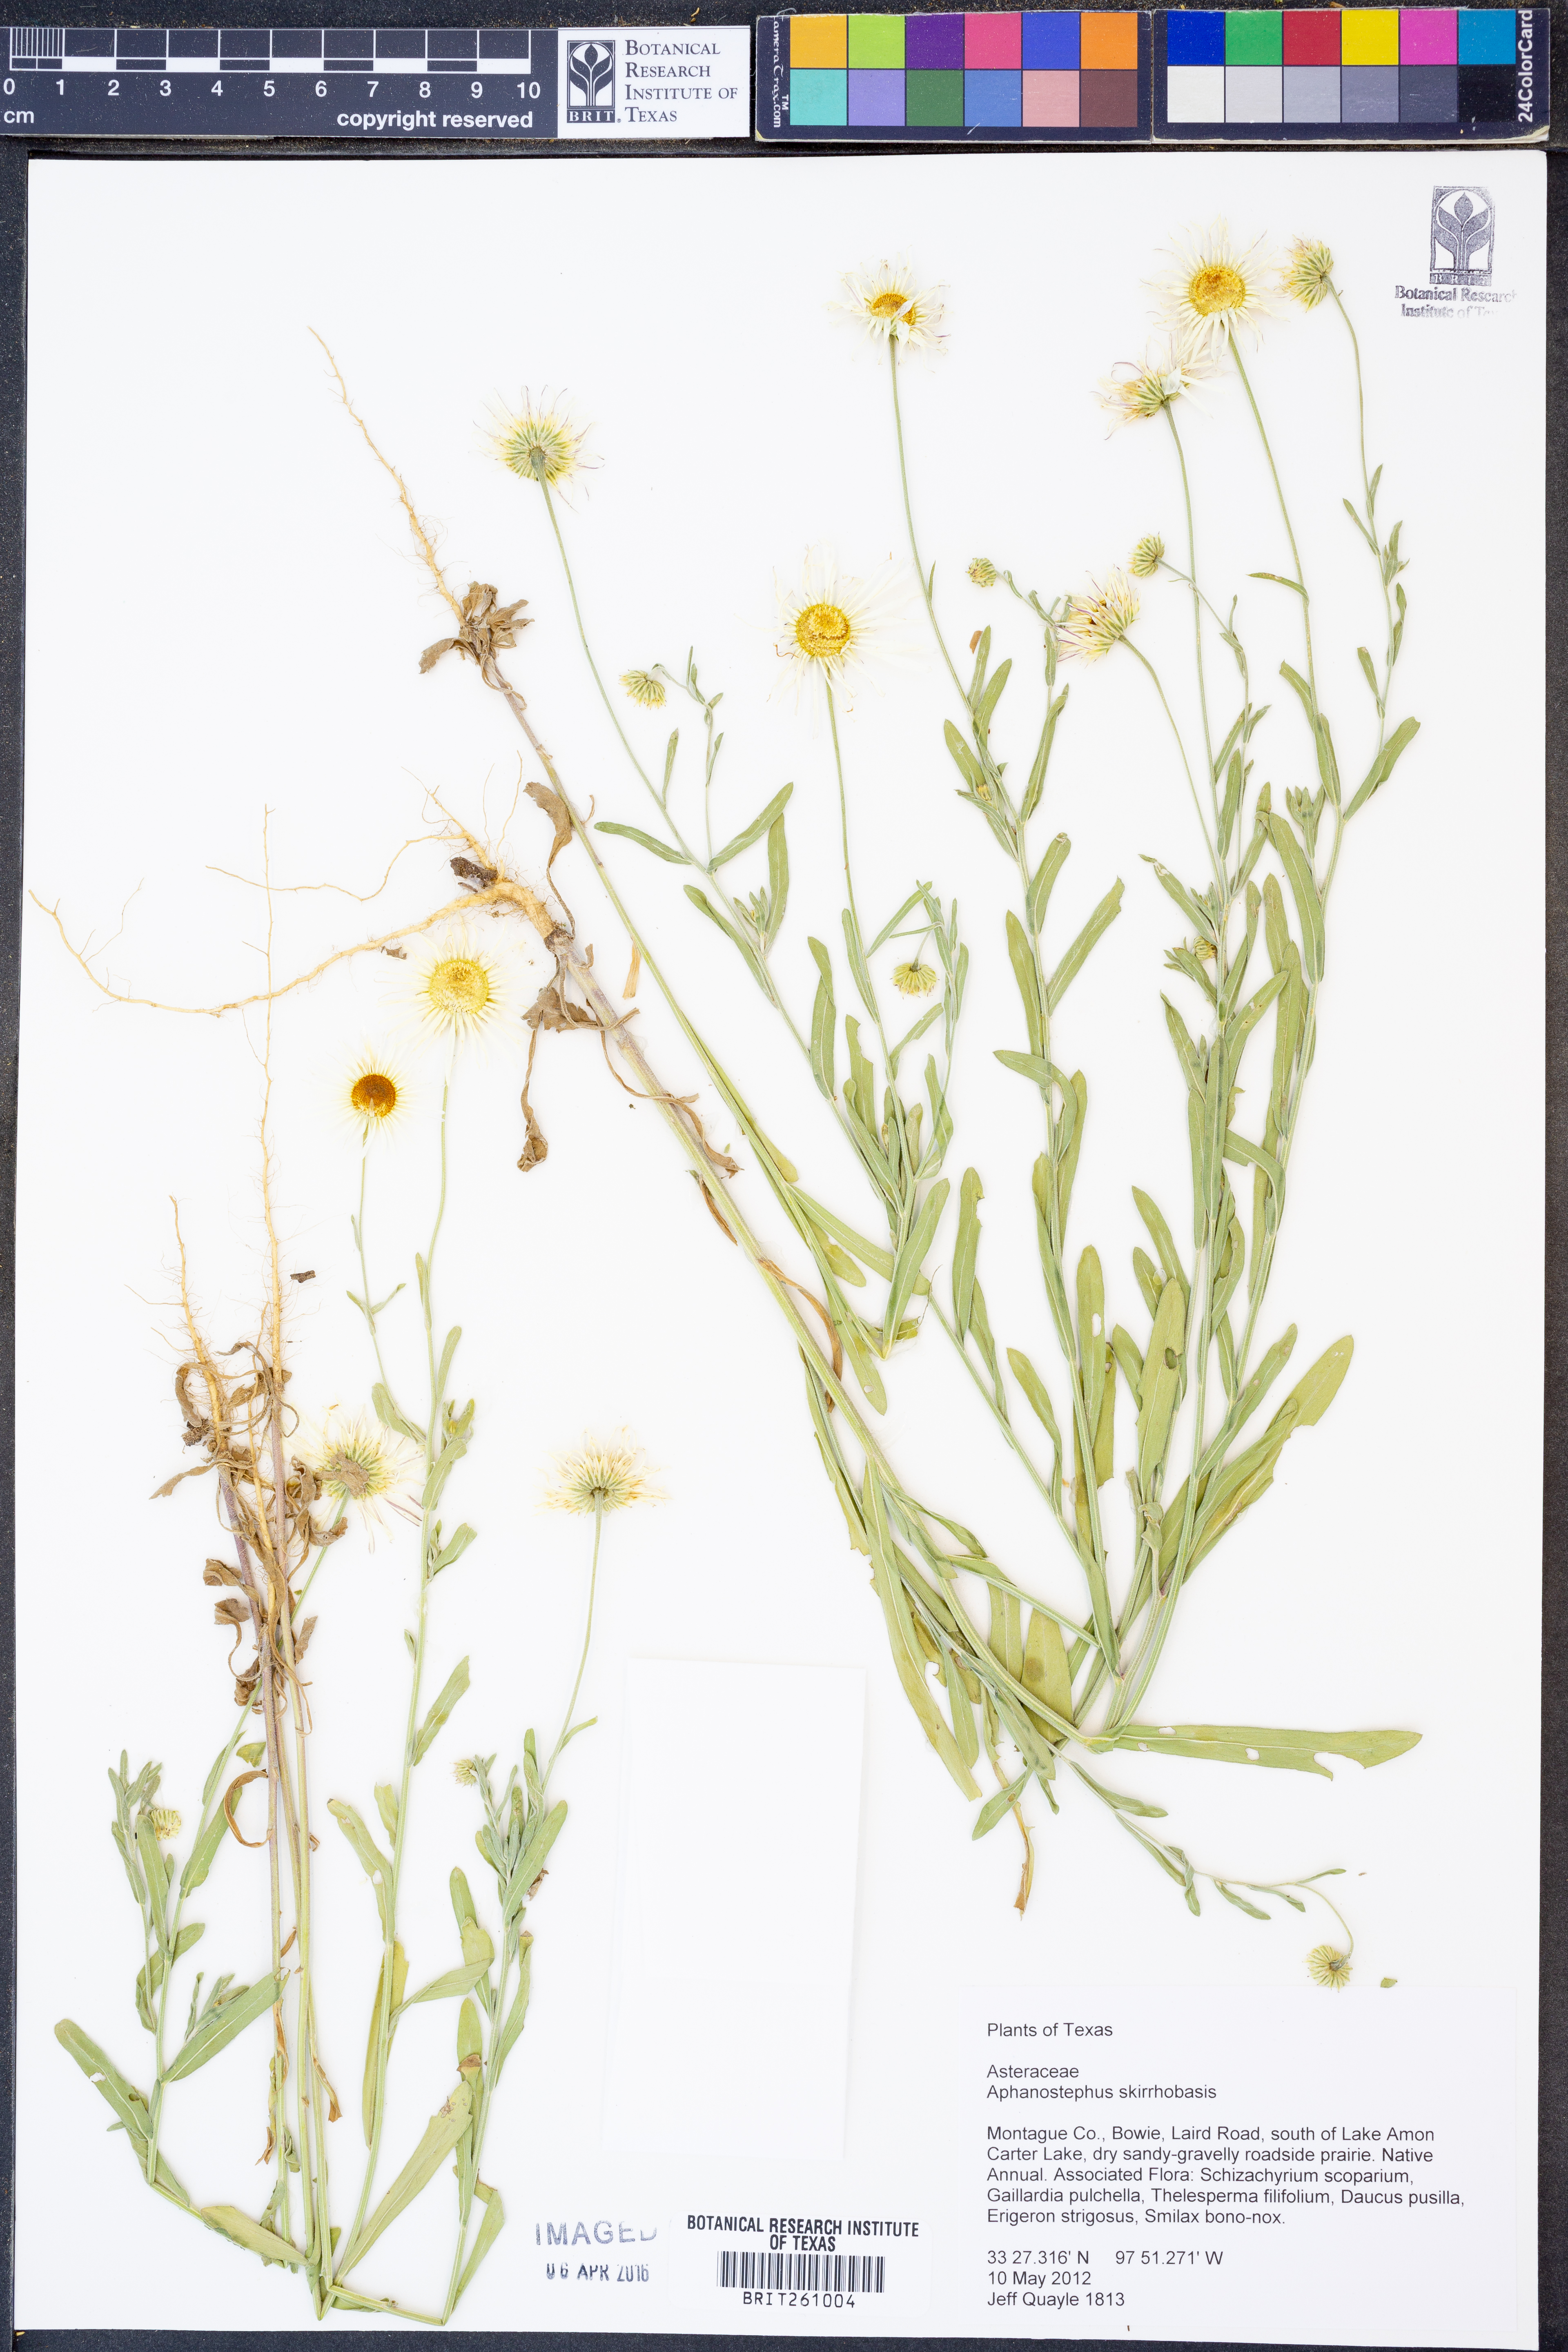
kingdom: Plantae
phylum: Tracheophyta
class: Magnoliopsida
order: Asterales
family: Asteraceae
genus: Aphanostephus
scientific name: Aphanostephus skirrhobasis
